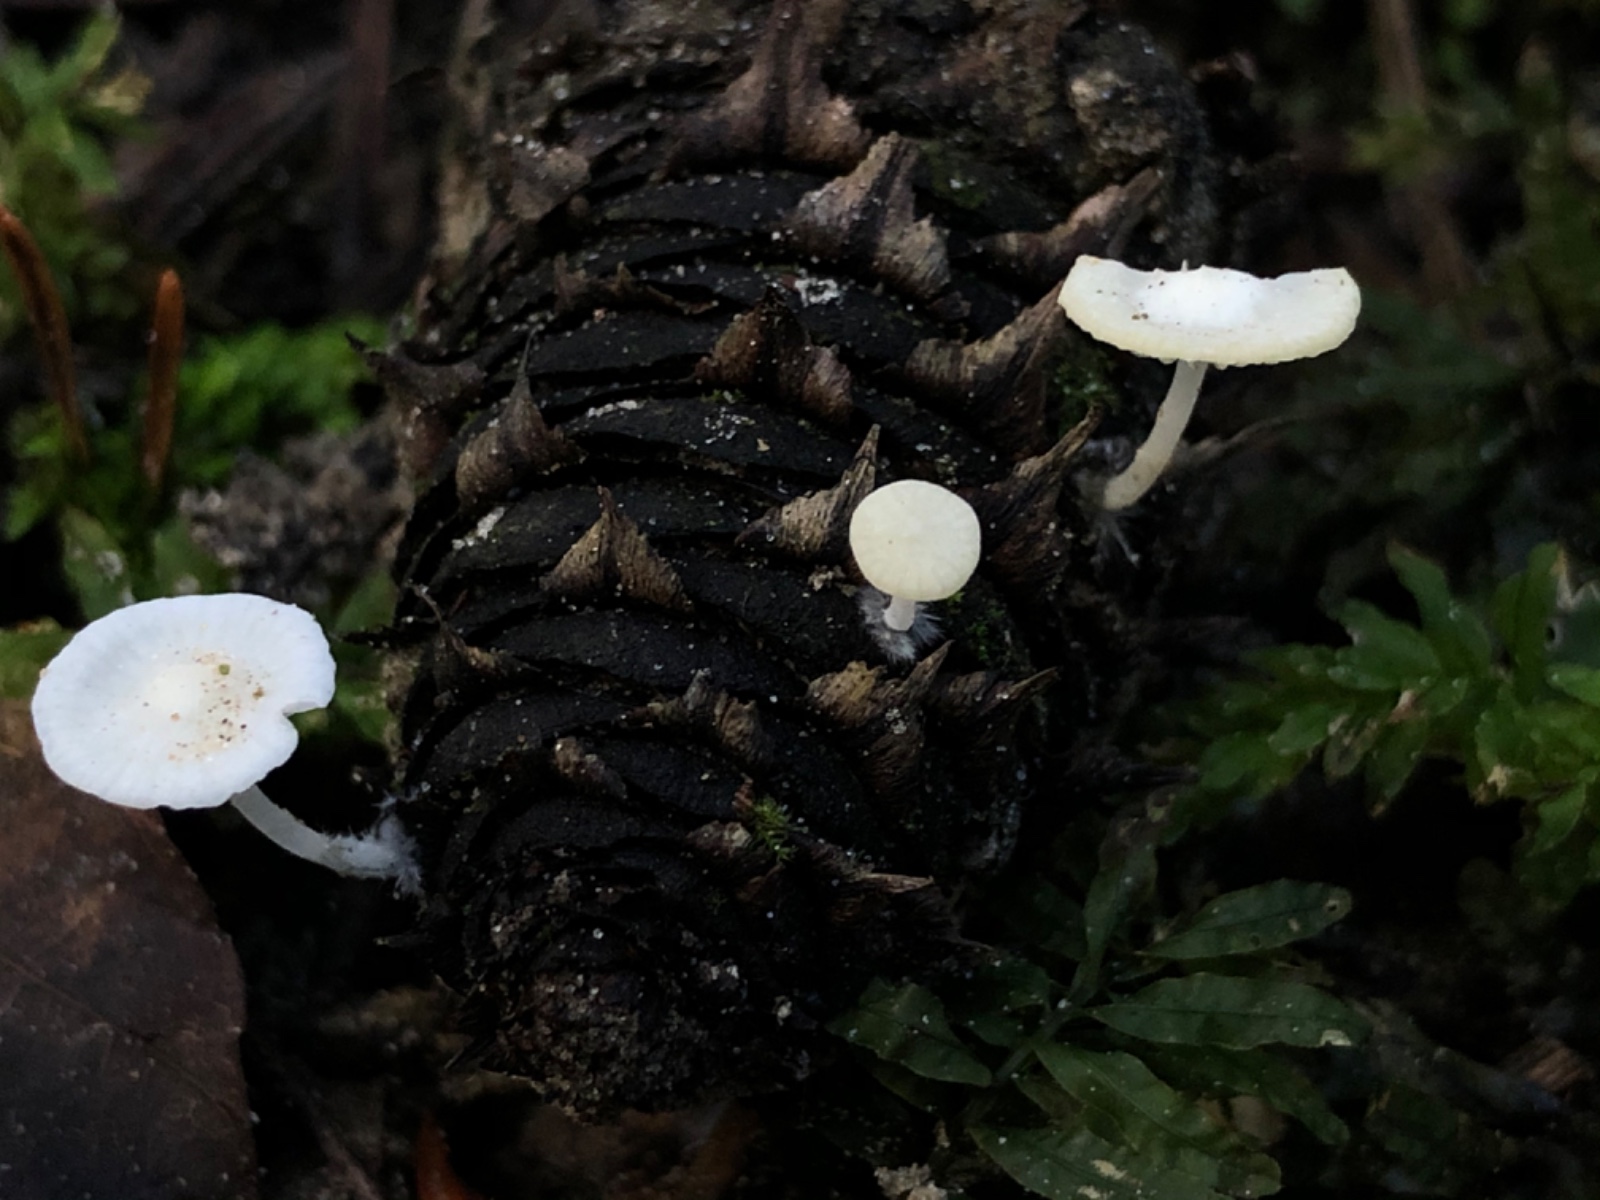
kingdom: Fungi
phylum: Basidiomycota
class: Agaricomycetes
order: Agaricales
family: Mycenaceae
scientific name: Mycenaceae
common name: huesvampfamilien
